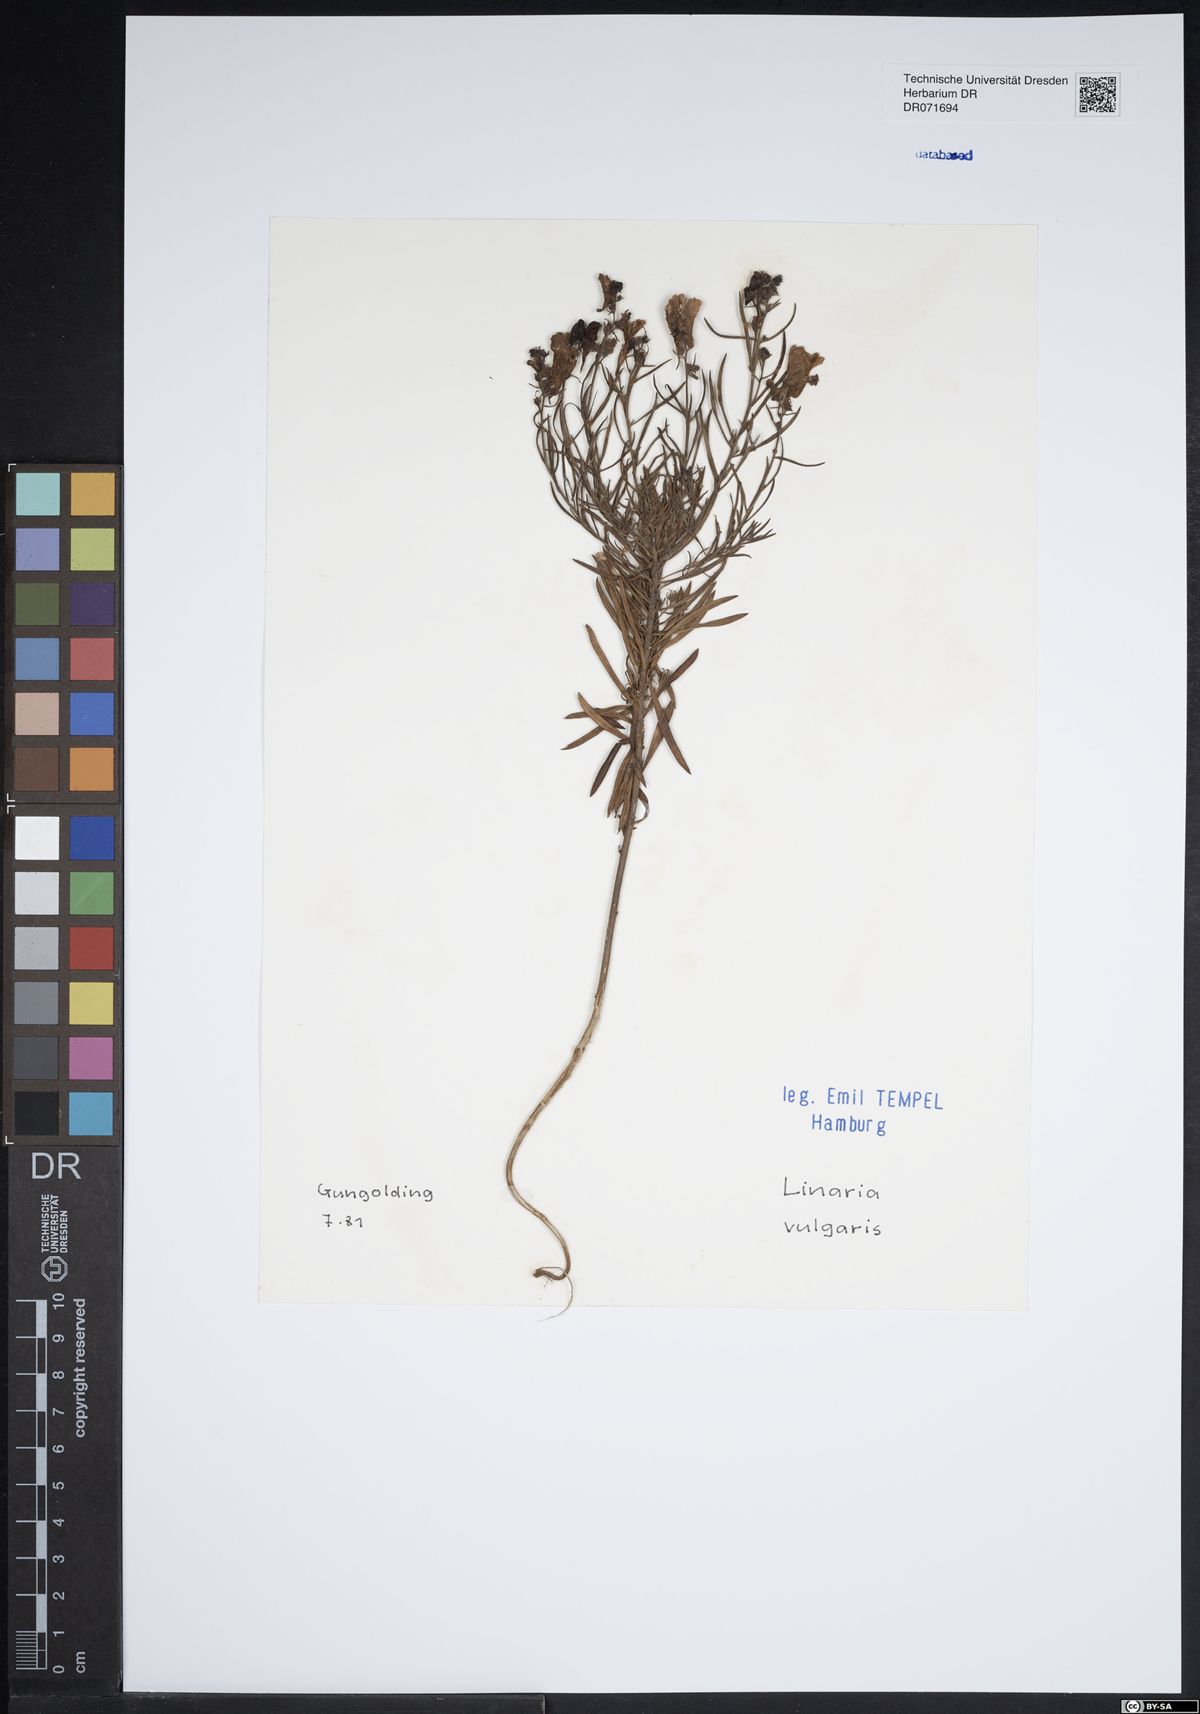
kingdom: Plantae
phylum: Tracheophyta
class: Magnoliopsida
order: Lamiales
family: Plantaginaceae
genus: Linaria
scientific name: Linaria vulgaris
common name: Butter and eggs
